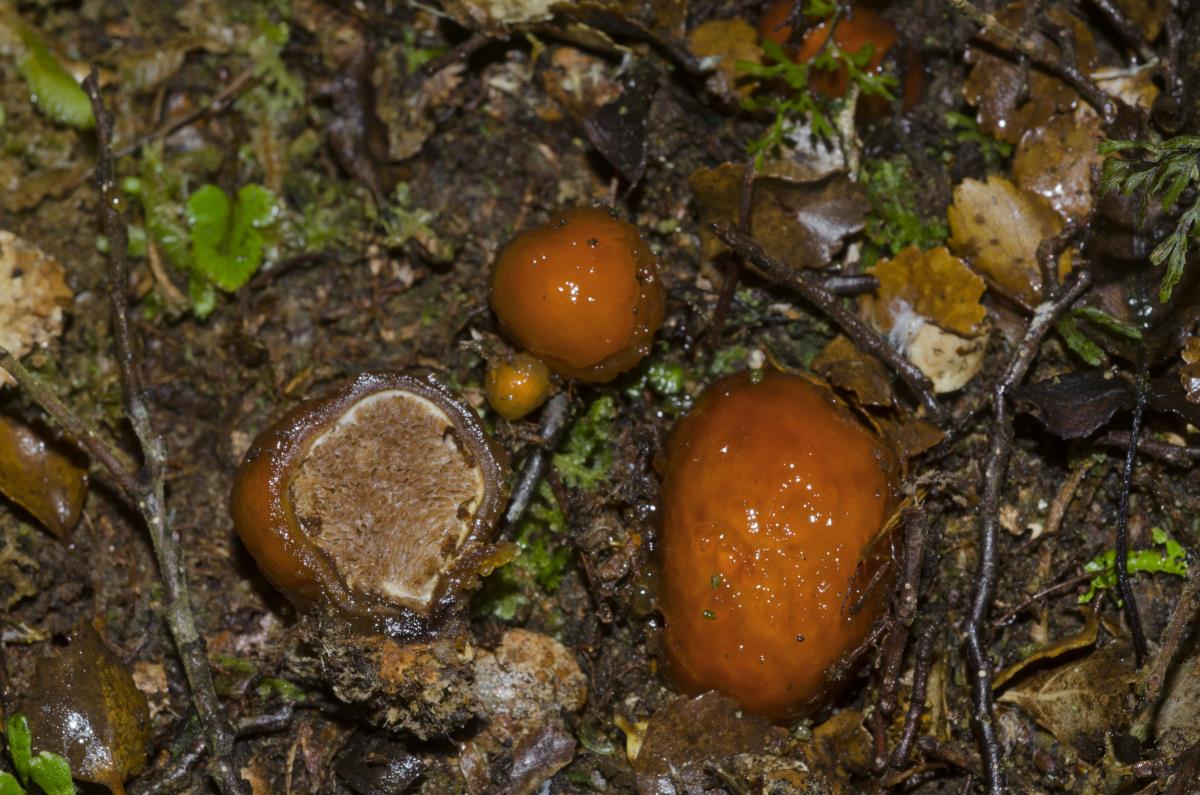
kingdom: Fungi
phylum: Basidiomycota
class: Agaricomycetes
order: Agaricales
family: Cortinariaceae
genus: Cortinarius
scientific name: Cortinarius beeverorum
